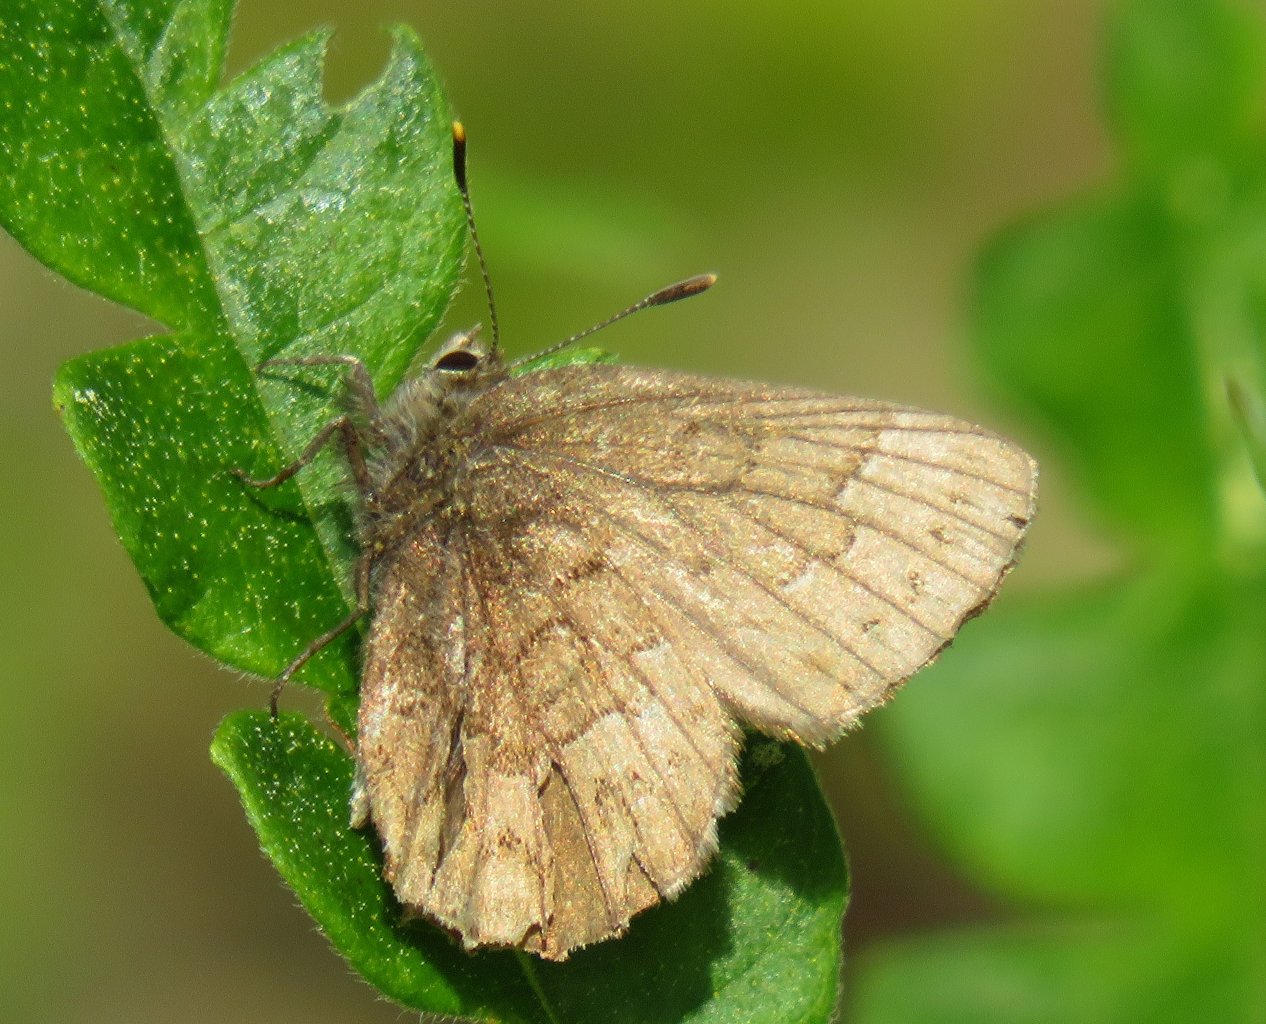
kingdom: Animalia
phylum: Arthropoda
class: Insecta
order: Lepidoptera
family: Lycaenidae
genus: Incisalia
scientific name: Incisalia niphon
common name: Eastern Pine Elfin
